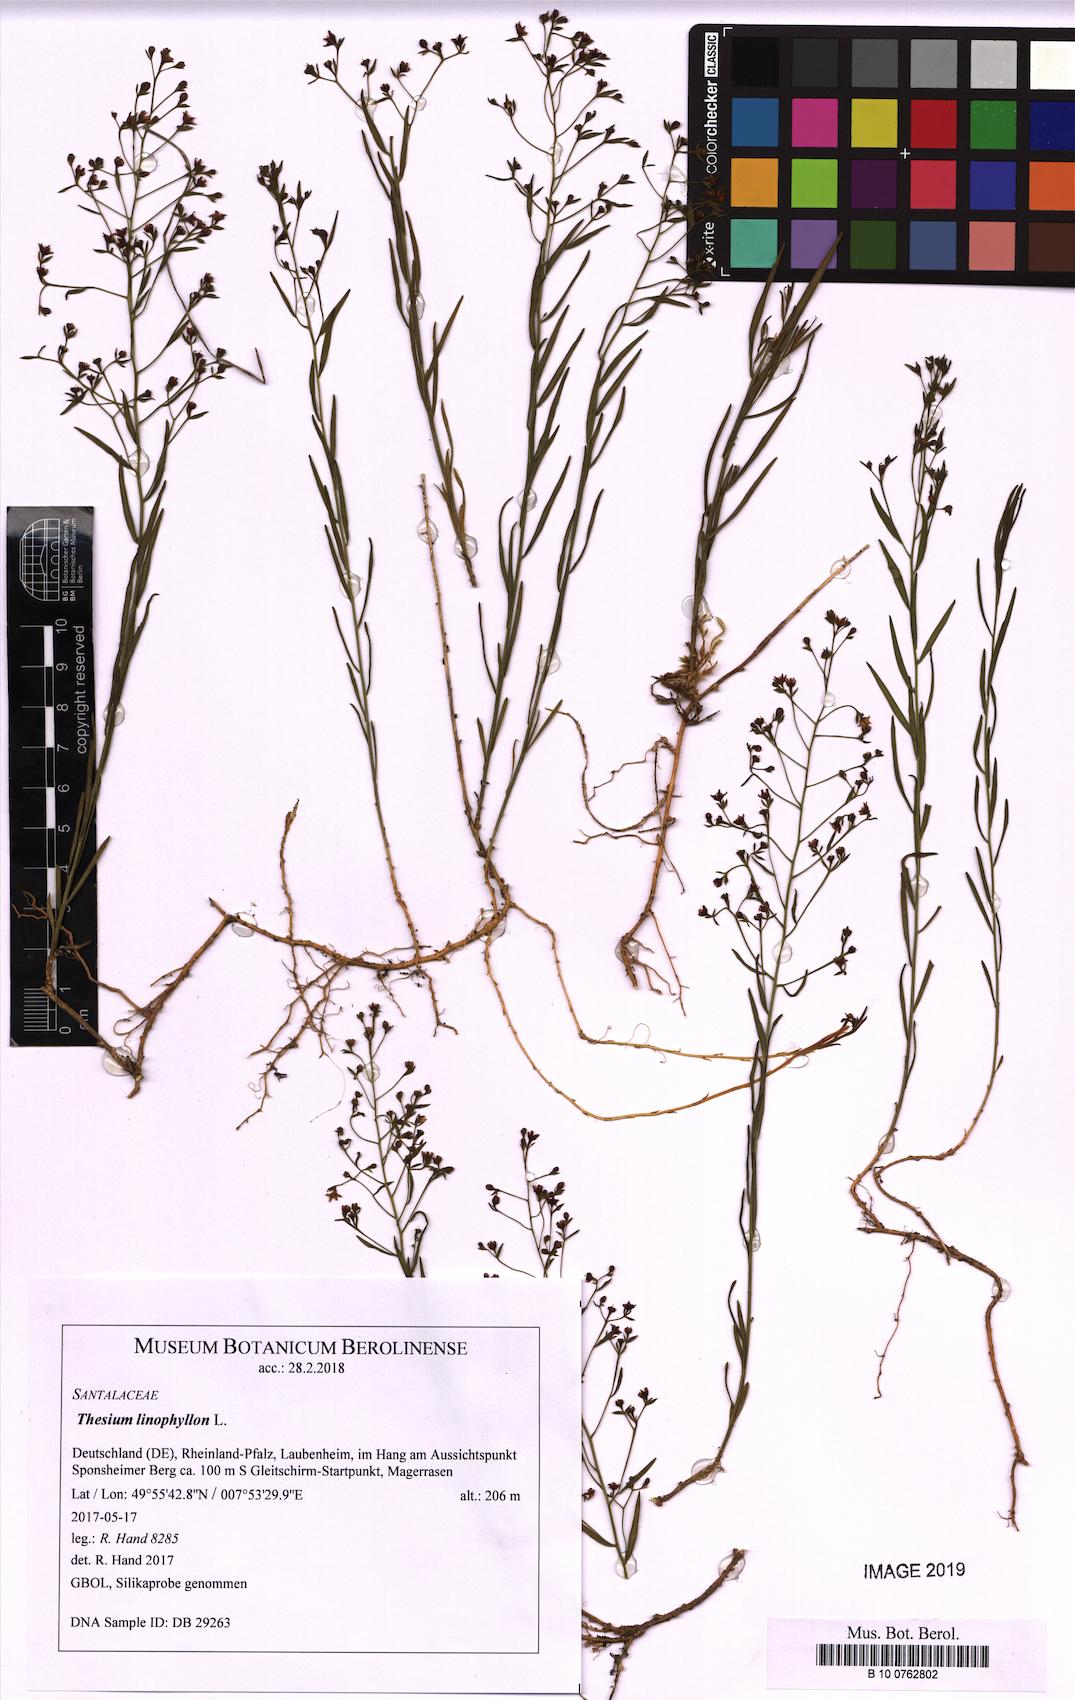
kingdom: Plantae
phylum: Tracheophyta
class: Magnoliopsida
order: Santalales
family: Thesiaceae
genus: Thesium
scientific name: Thesium linophyllon
